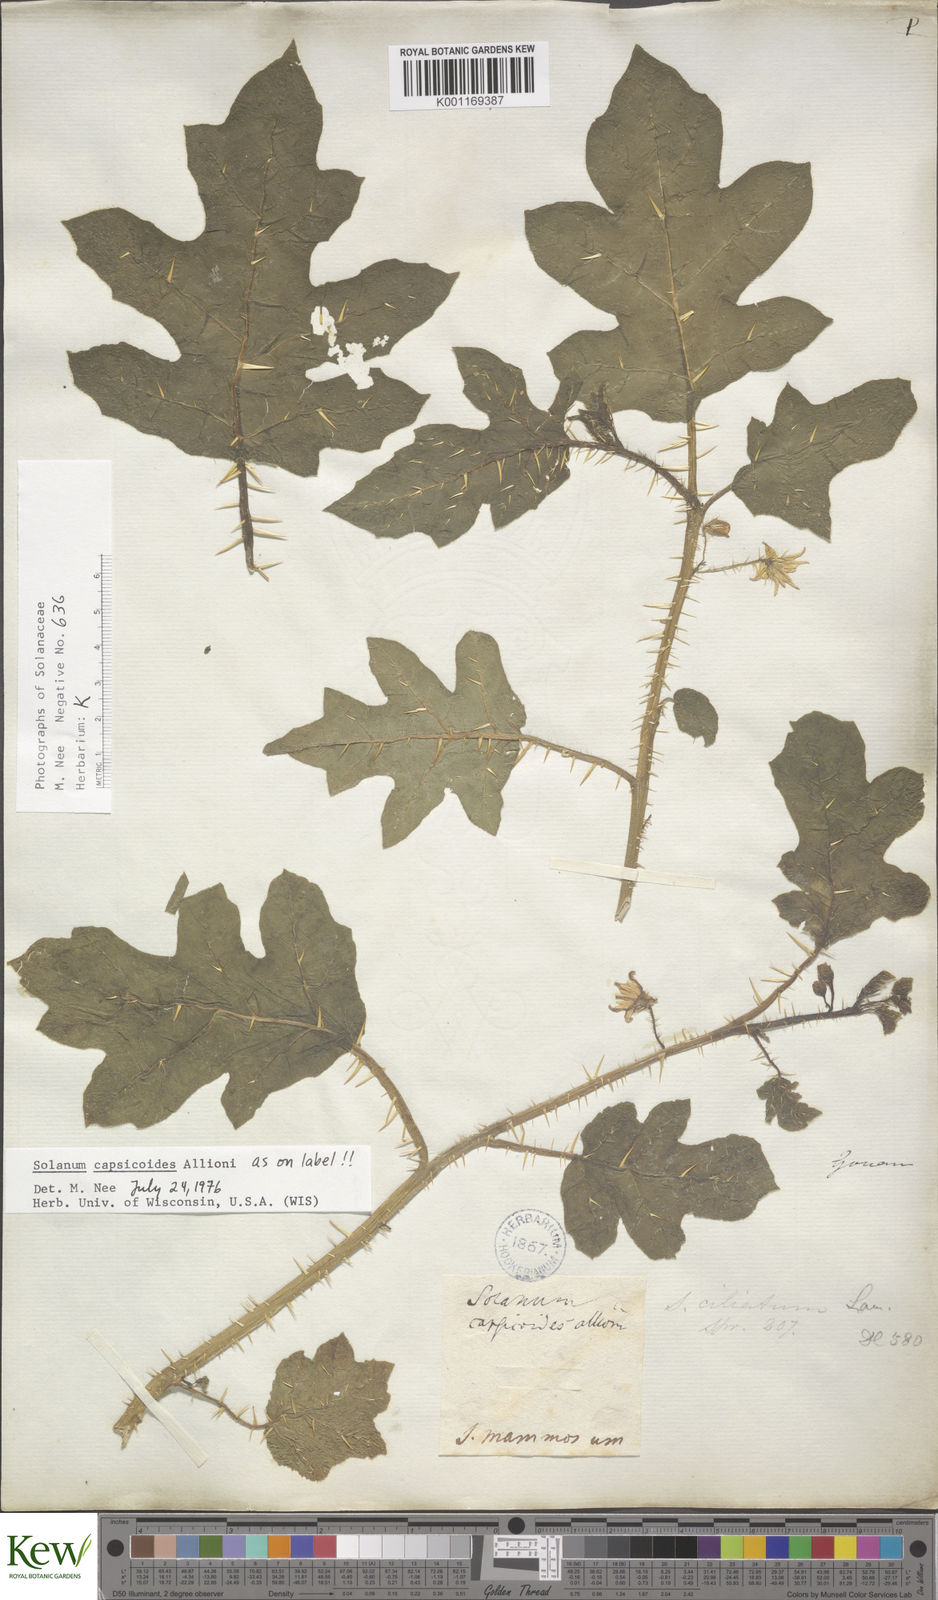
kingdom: Plantae
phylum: Tracheophyta
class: Magnoliopsida
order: Solanales
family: Solanaceae
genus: Solanum
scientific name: Solanum capsicoides
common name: Cockroach berry
